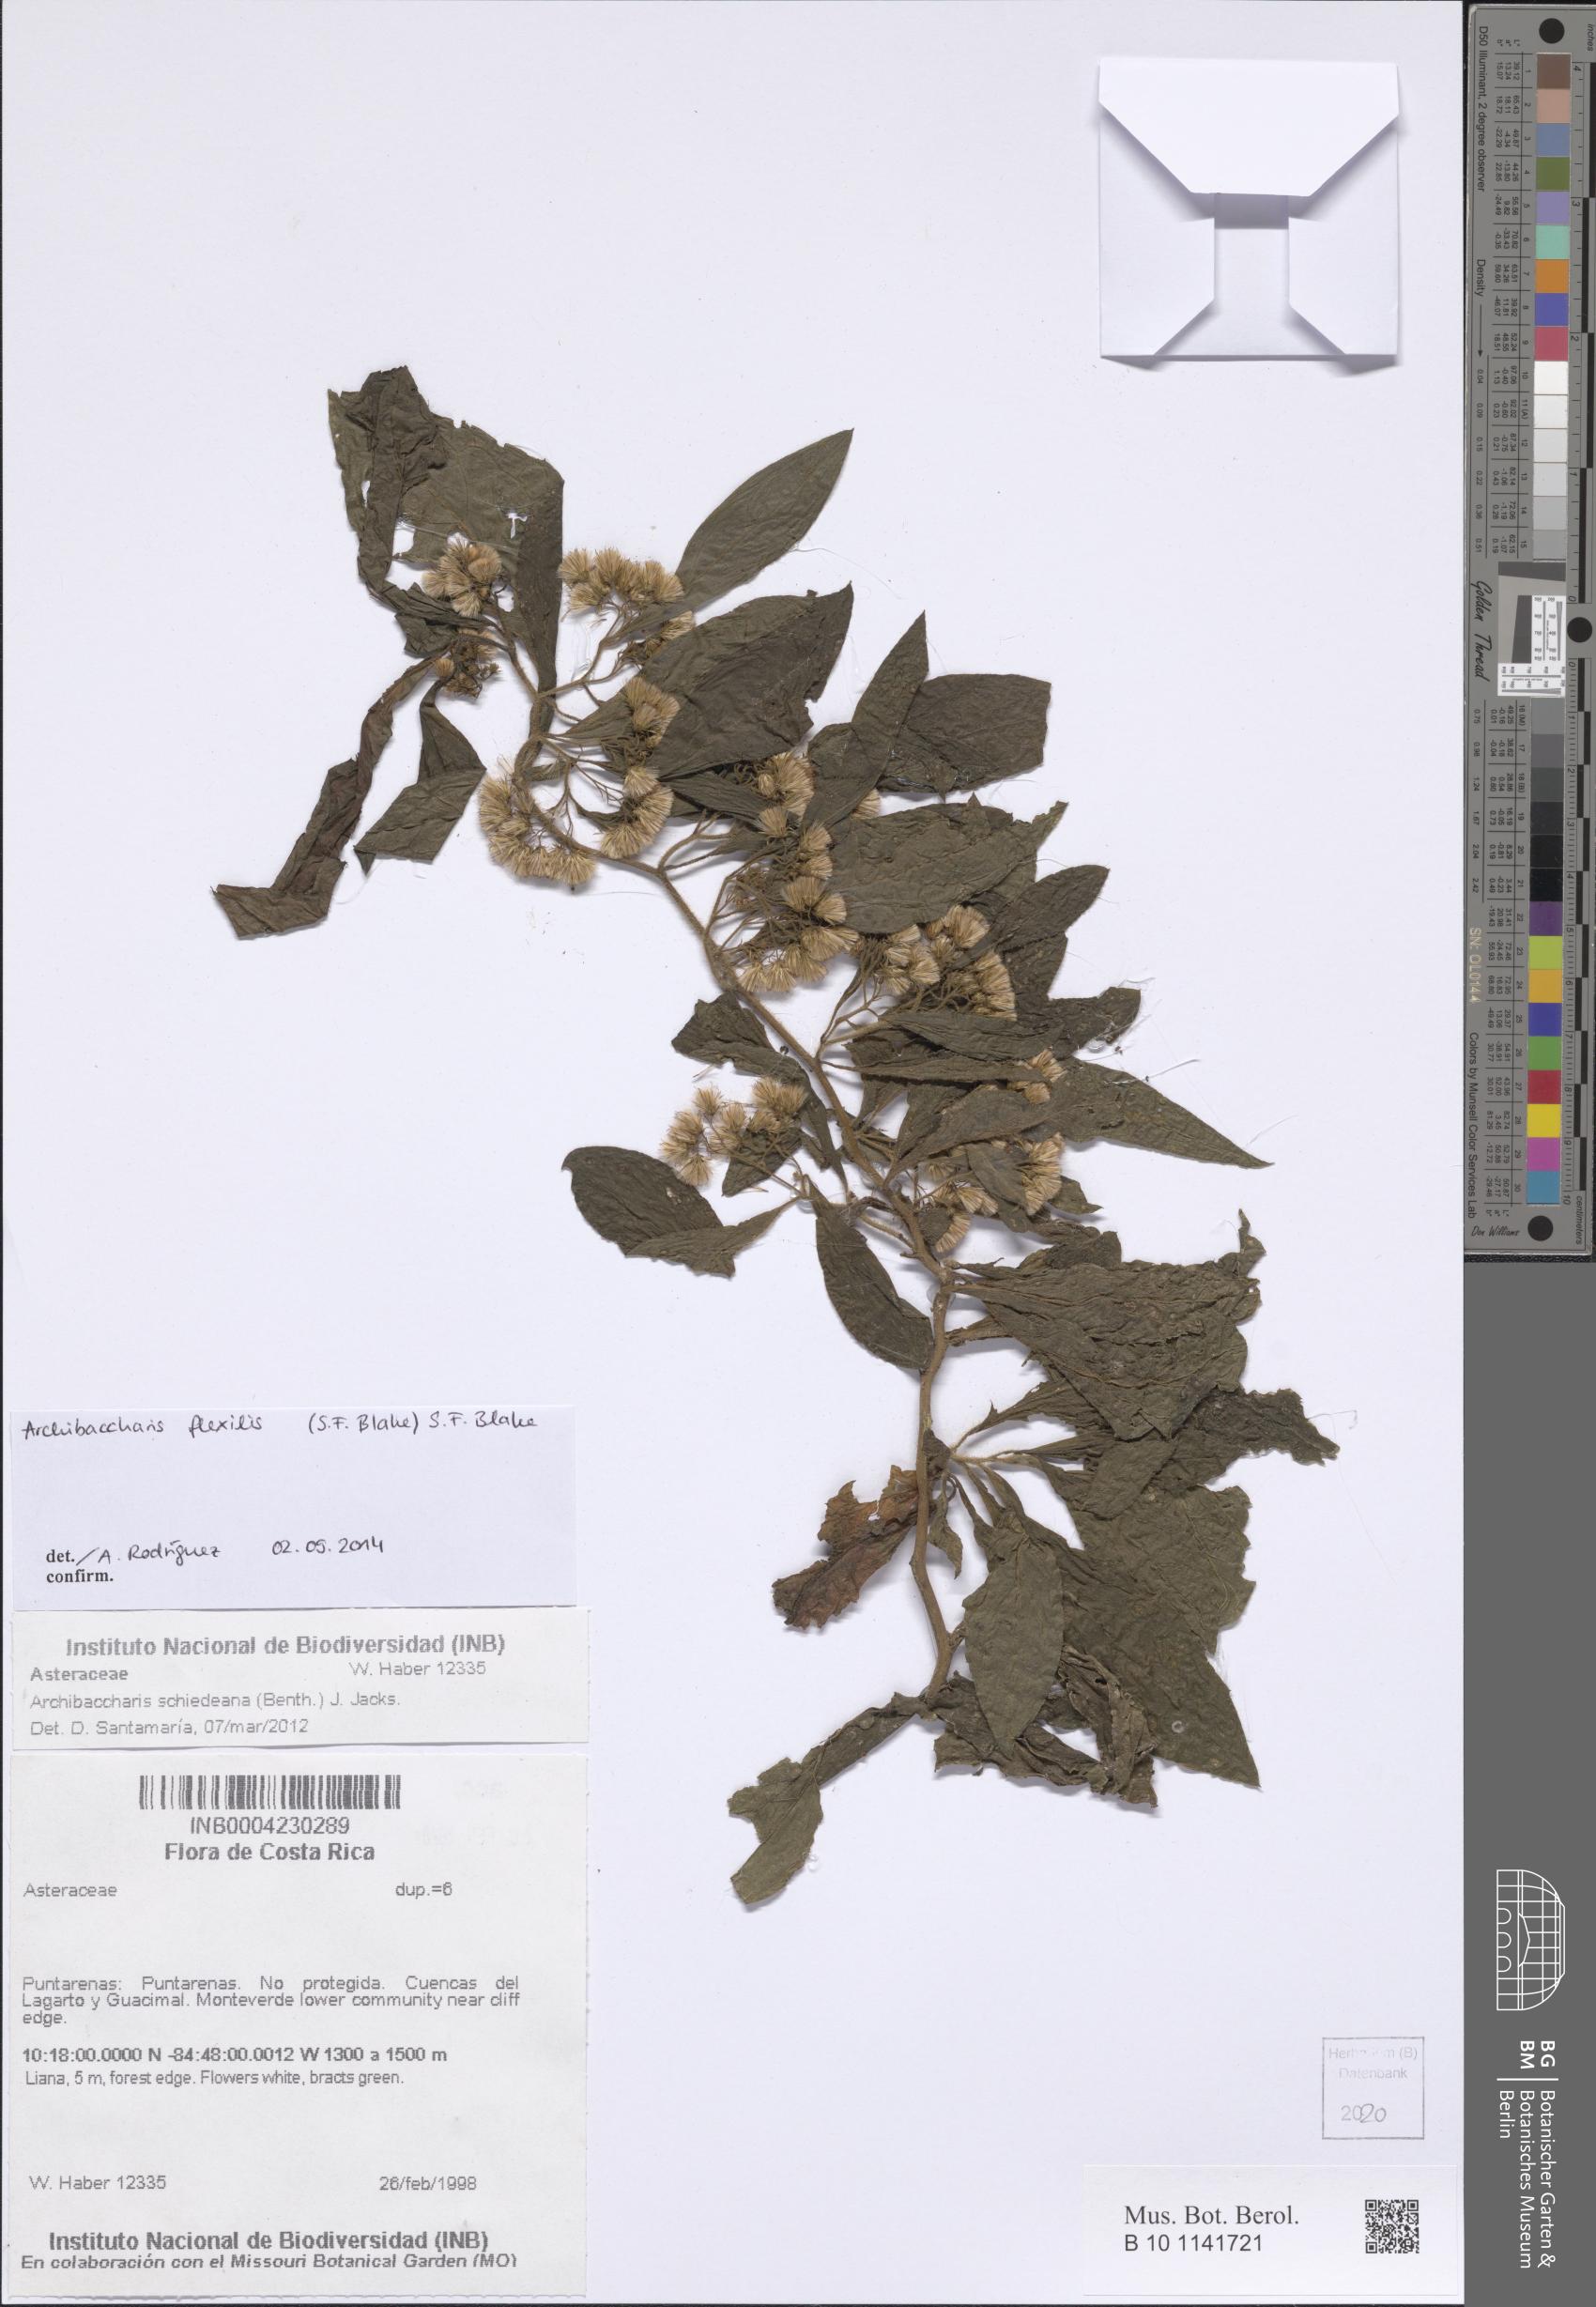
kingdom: Plantae
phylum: Tracheophyta
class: Magnoliopsida
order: Asterales
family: Asteraceae
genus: Archibaccharis
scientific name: Archibaccharis flexilis
